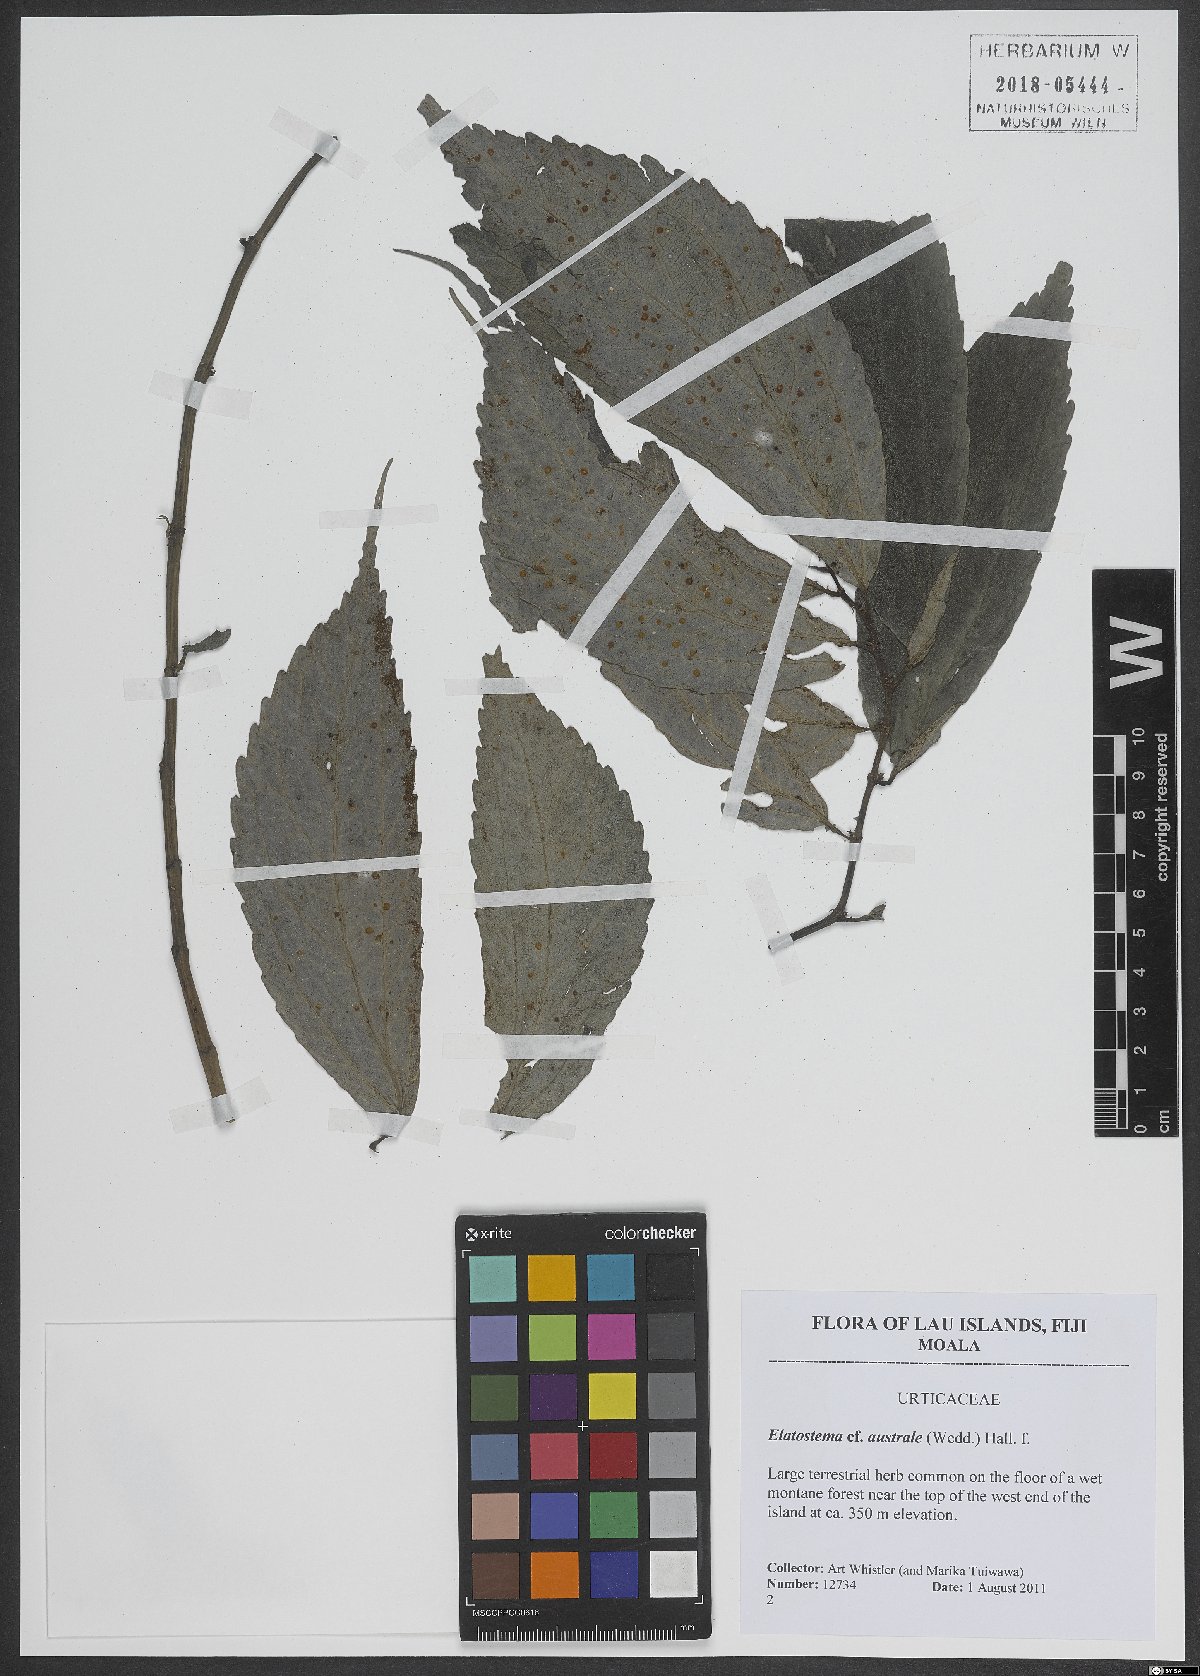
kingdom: Plantae
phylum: Tracheophyta
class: Magnoliopsida
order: Rosales
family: Urticaceae
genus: Elatostematoides
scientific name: Elatostematoides australe
